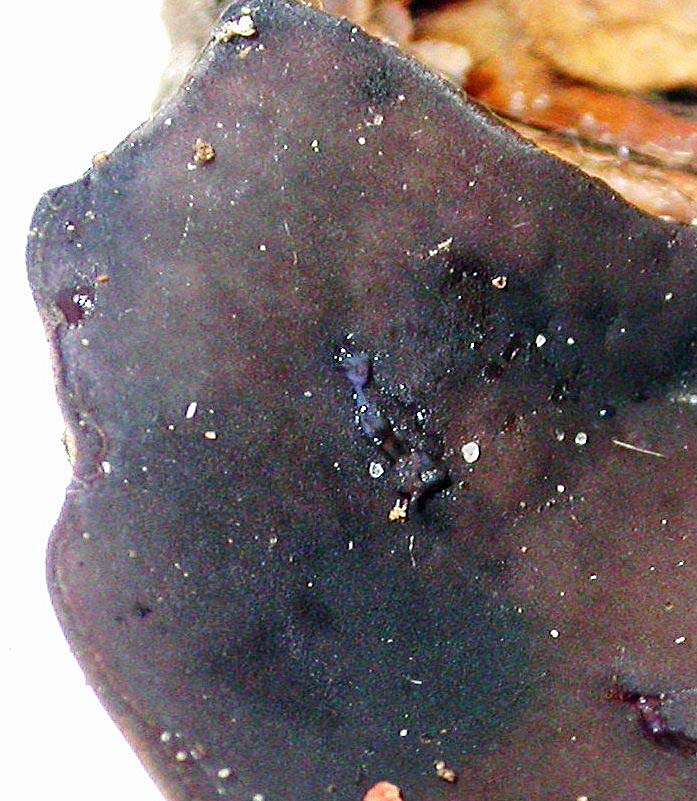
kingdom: Fungi
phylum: Ascomycota
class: Pezizomycetes
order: Pezizales
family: Pezizaceae
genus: Peziza
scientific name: Peziza saniosa
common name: blåmælket bægersvamp
